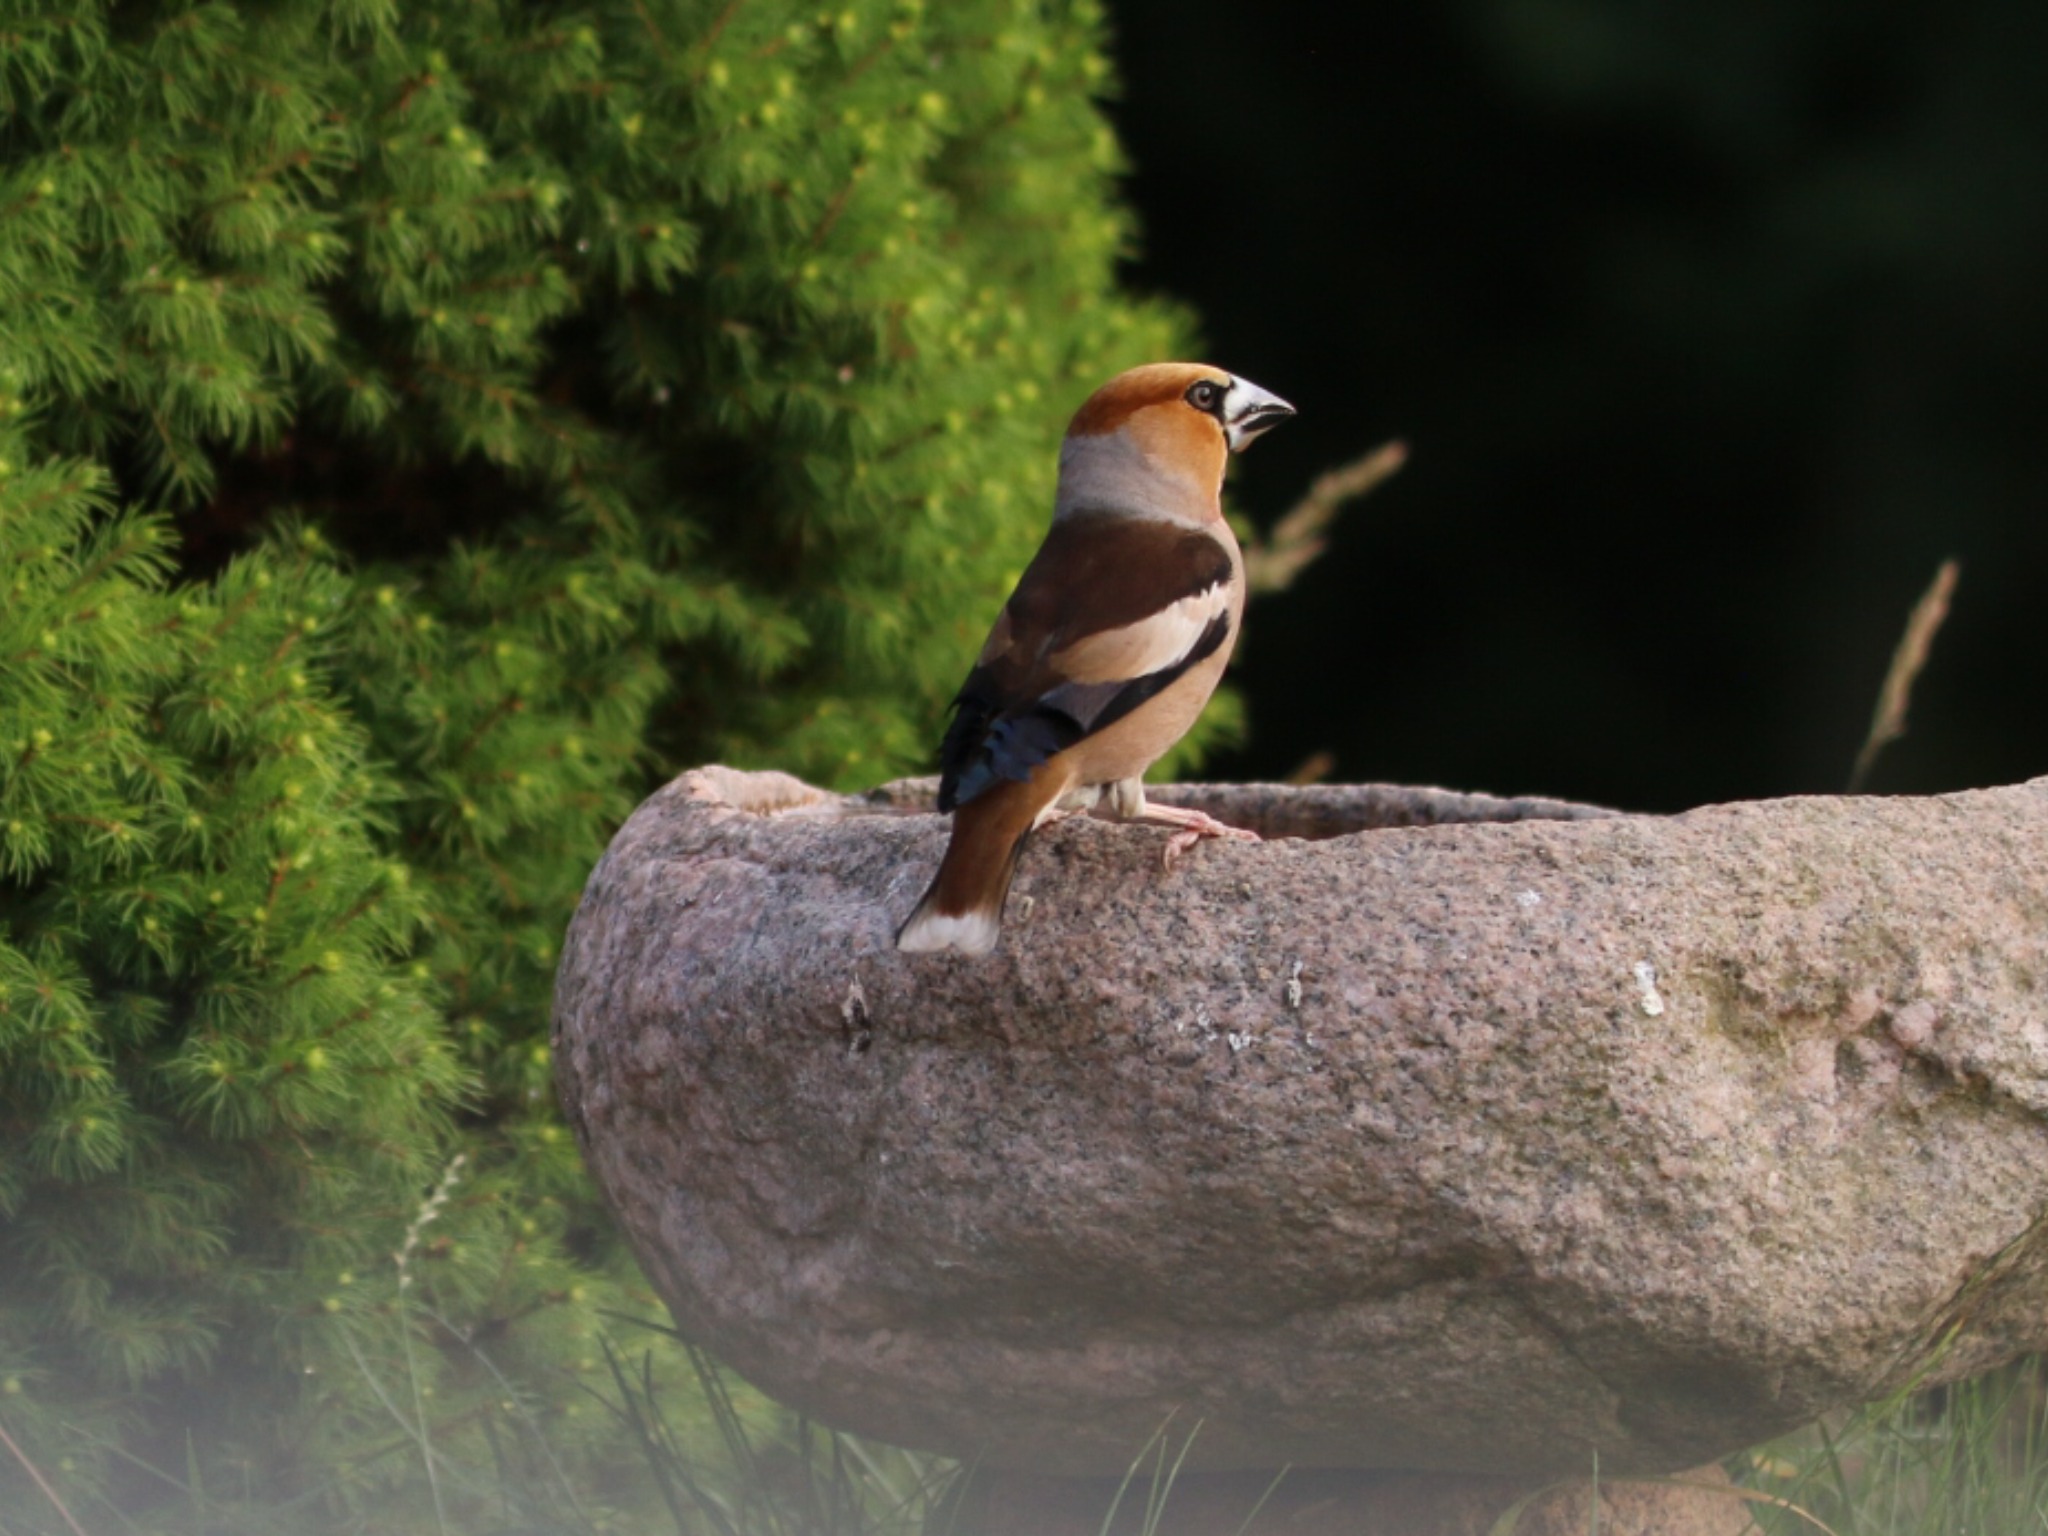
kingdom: Animalia
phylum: Chordata
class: Aves
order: Passeriformes
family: Fringillidae
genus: Coccothraustes
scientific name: Coccothraustes coccothraustes
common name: Kernebider
